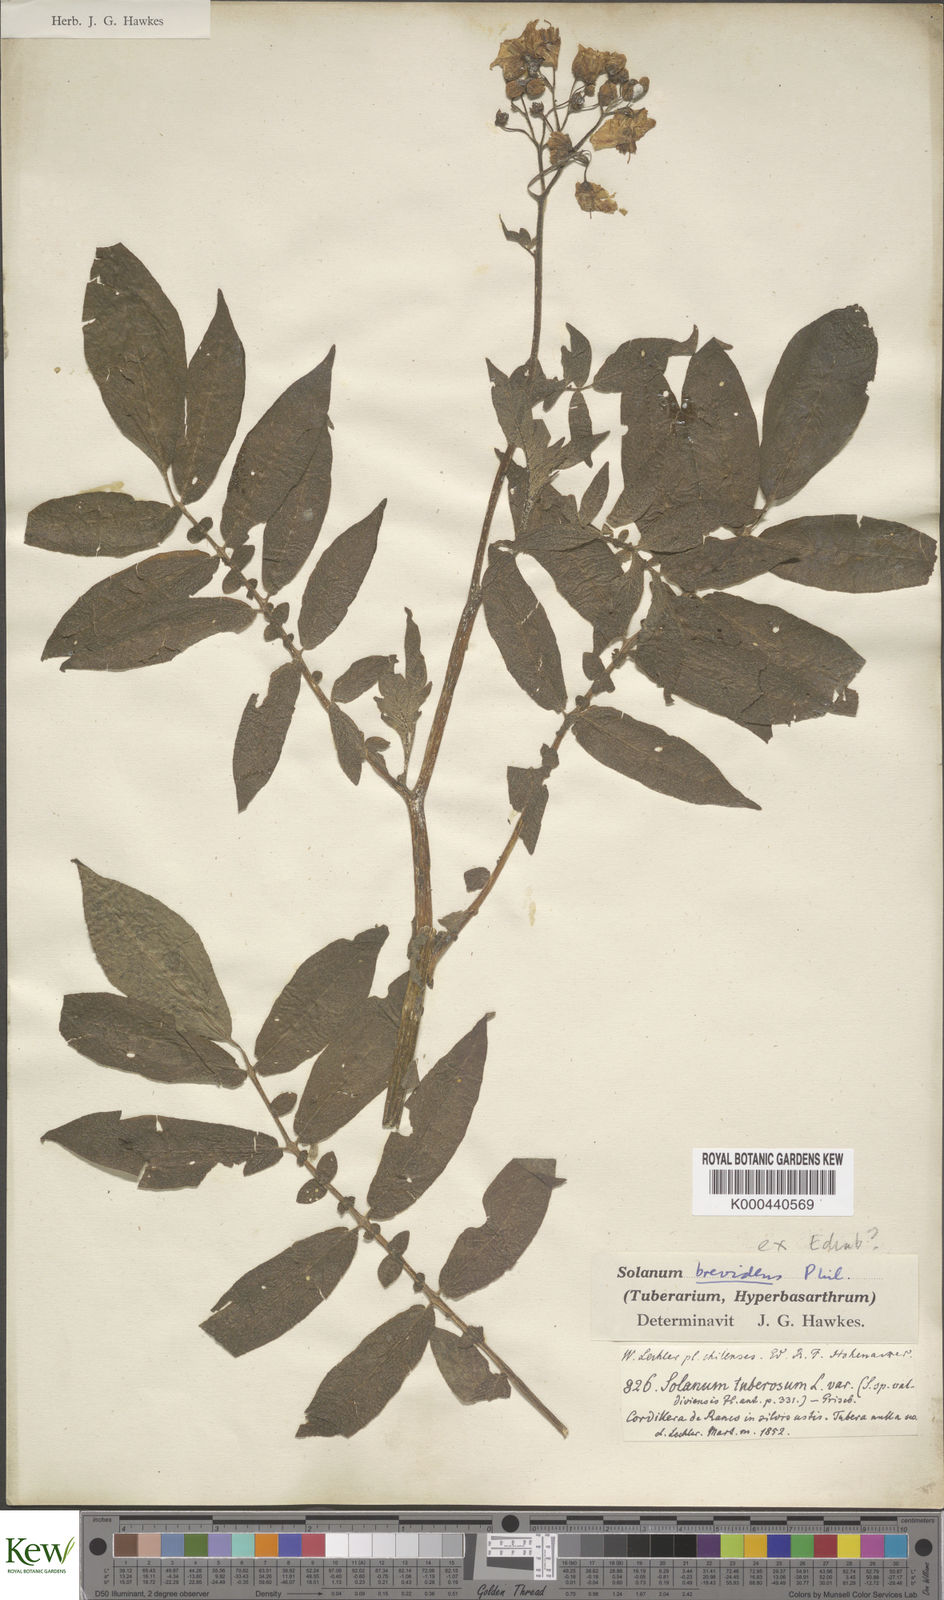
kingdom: Plantae
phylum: Tracheophyta
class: Magnoliopsida
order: Solanales
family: Solanaceae
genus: Solanum
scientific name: Solanum palustre
